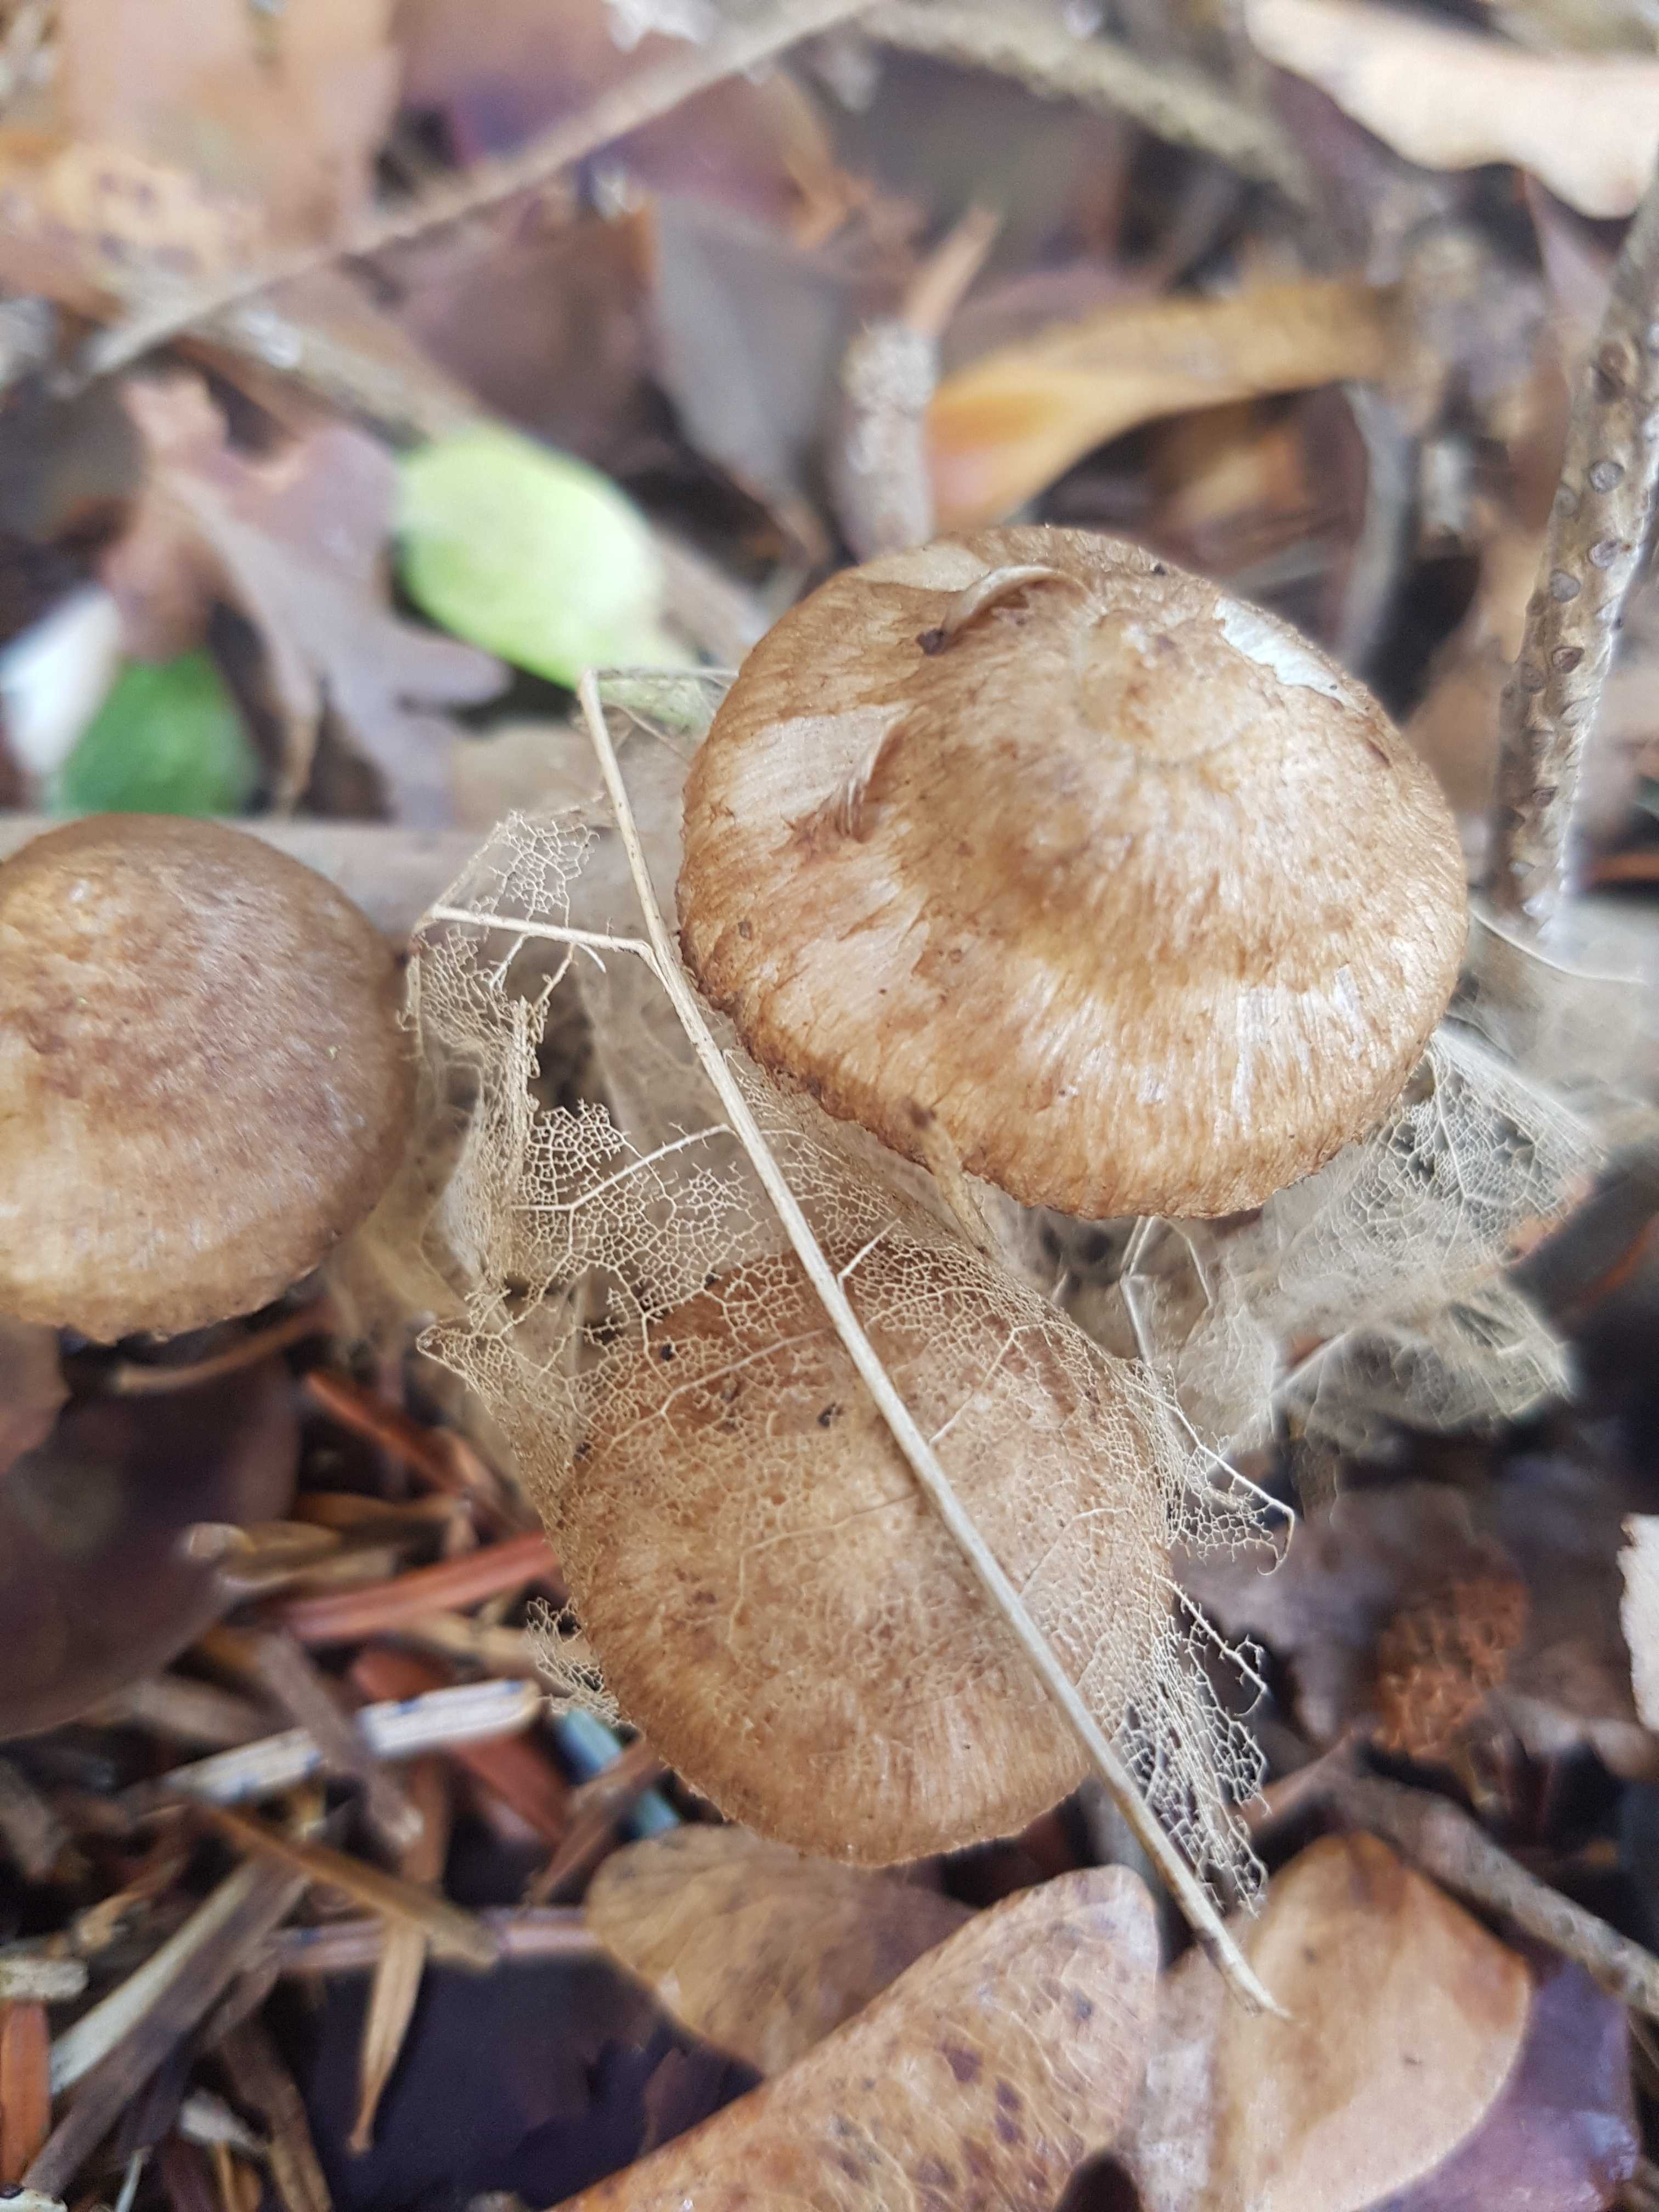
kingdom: Fungi
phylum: Basidiomycota
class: Agaricomycetes
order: Agaricales
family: Inocybaceae
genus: Inocybe
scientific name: Inocybe
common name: trævlhat
